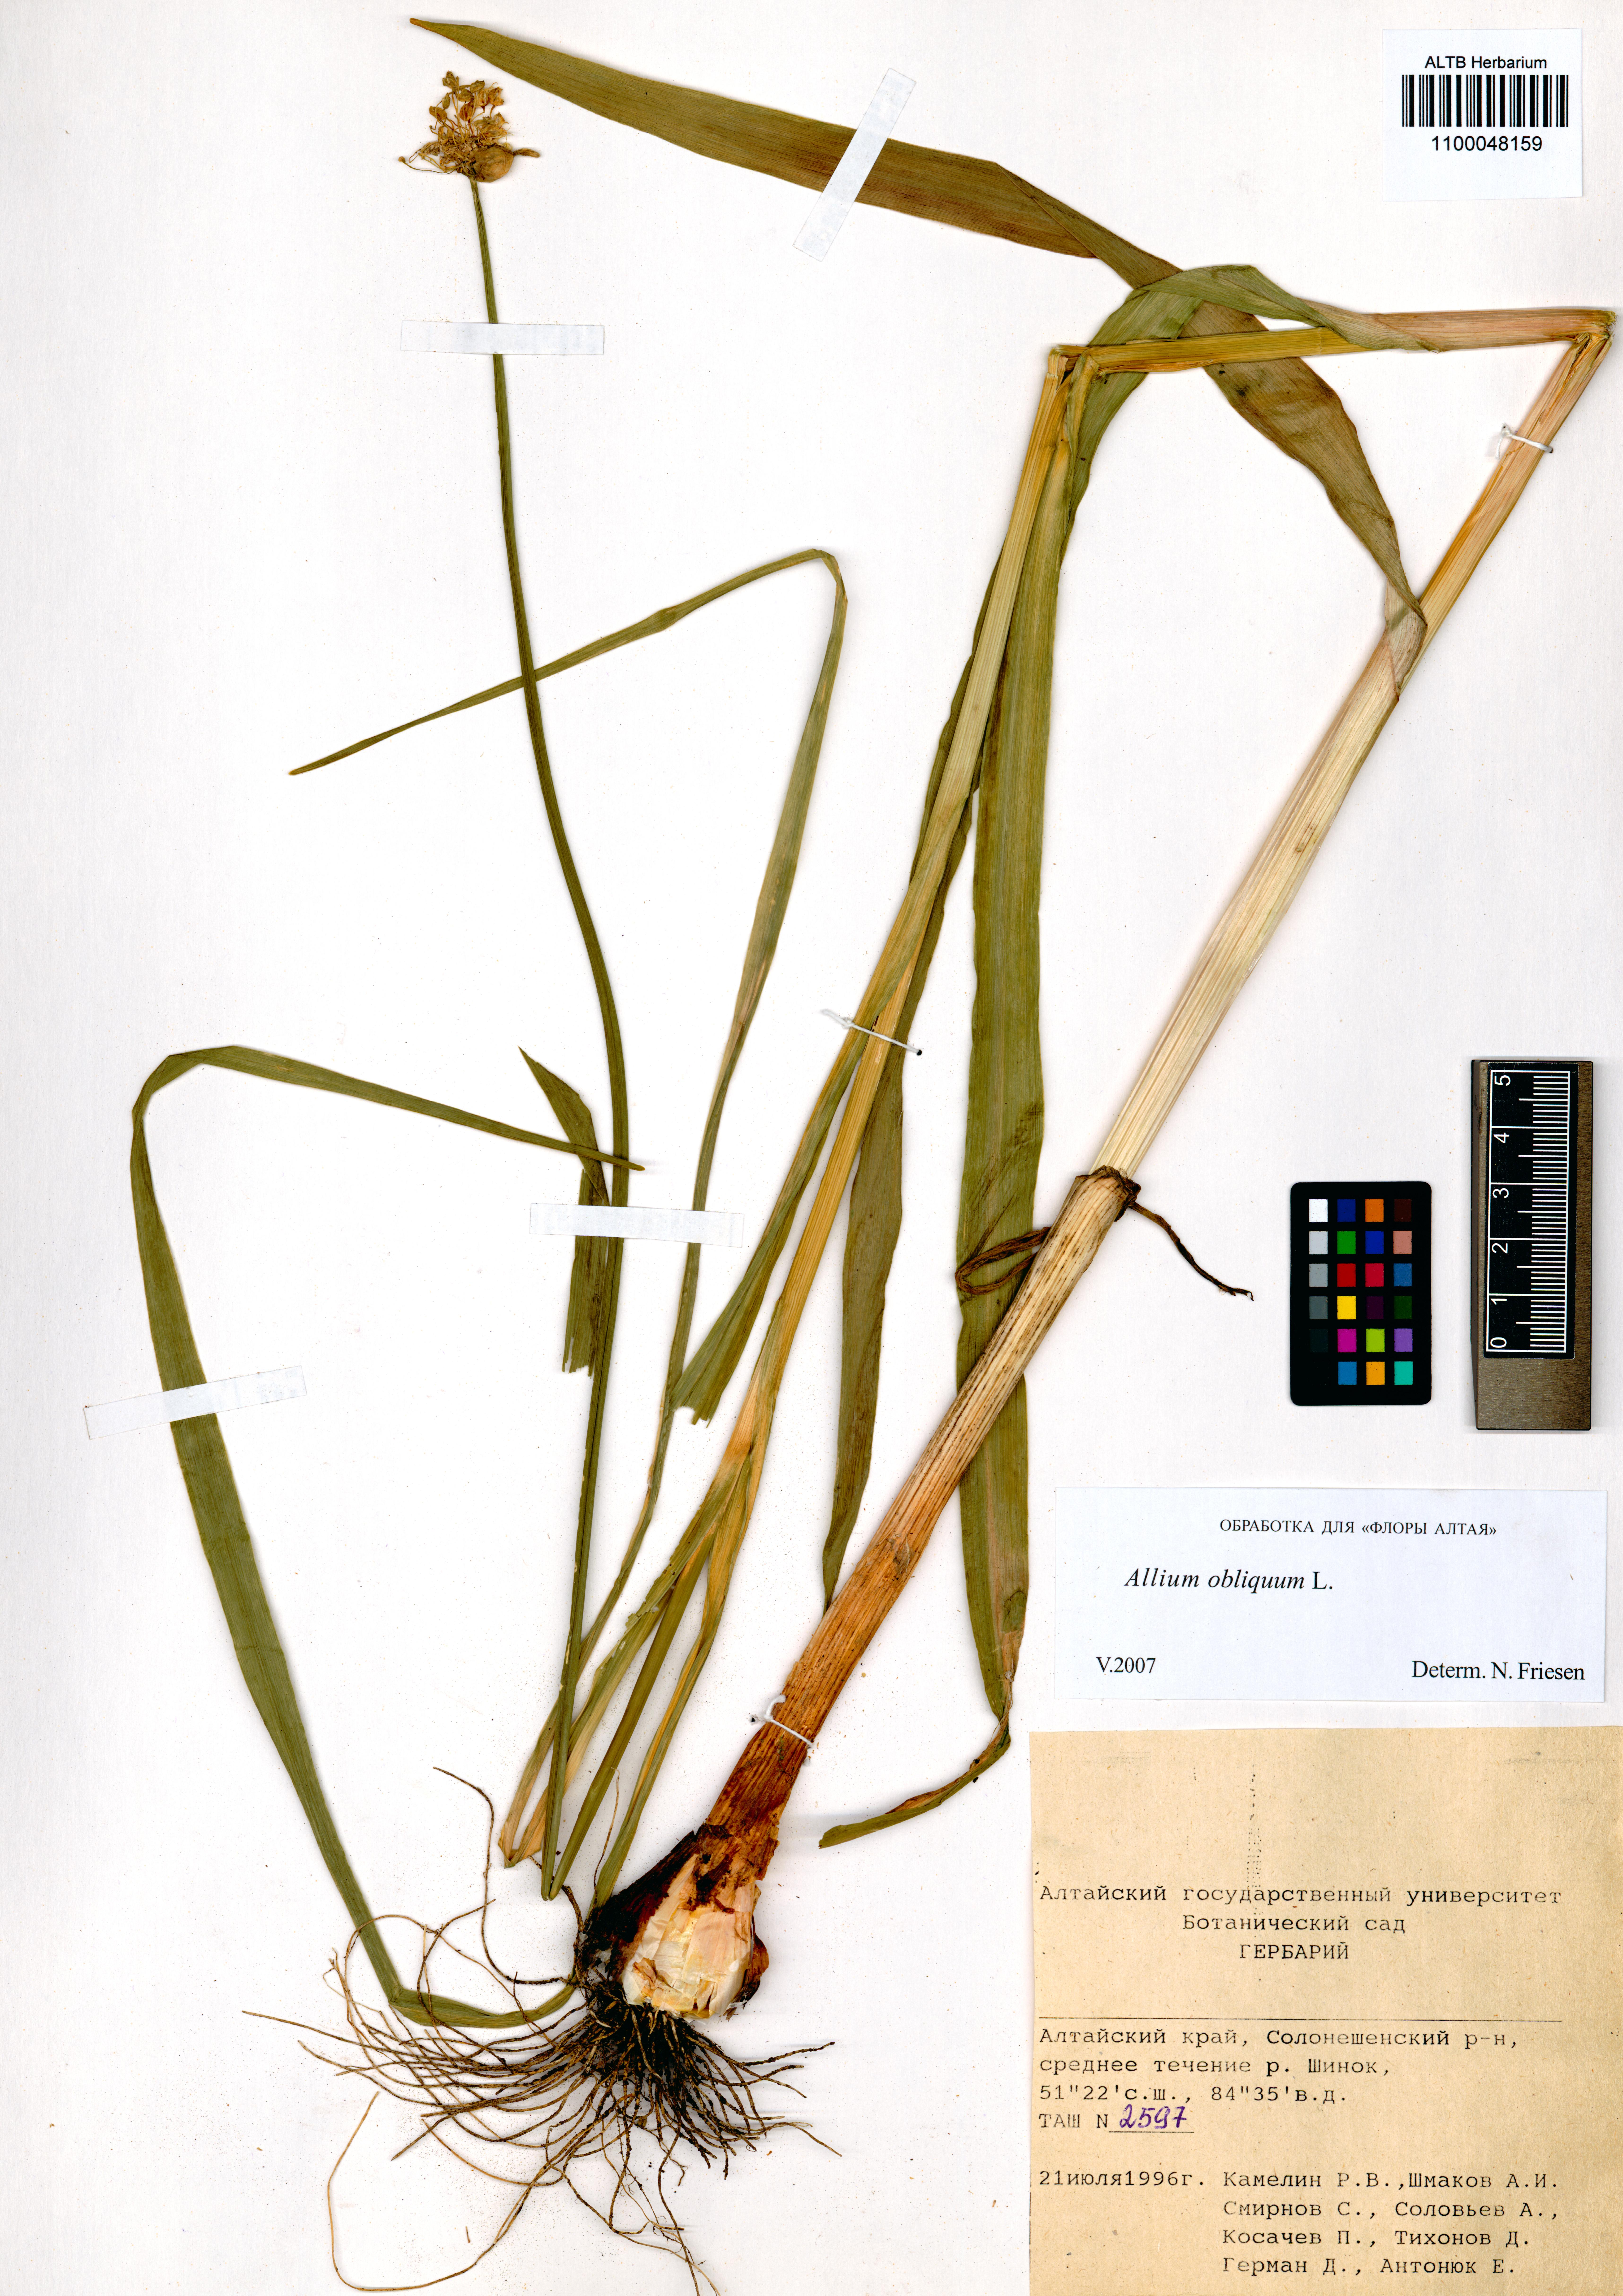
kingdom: Plantae
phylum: Tracheophyta
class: Liliopsida
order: Asparagales
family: Amaryllidaceae
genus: Allium
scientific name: Allium obliquum
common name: Oblique onion
